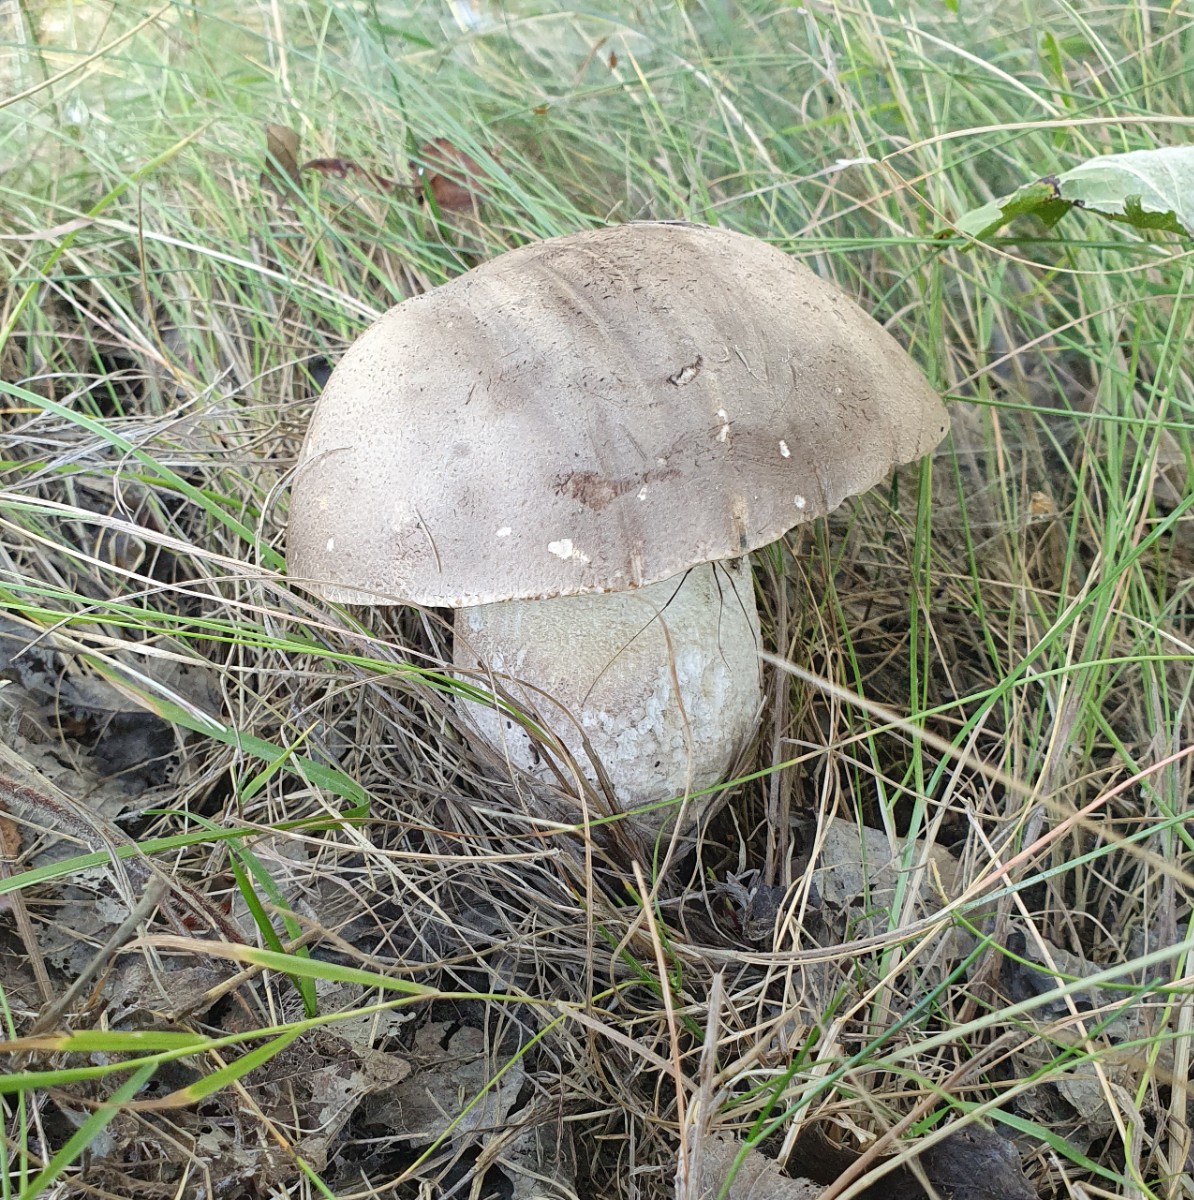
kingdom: Fungi
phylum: Basidiomycota
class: Agaricomycetes
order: Boletales
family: Boletaceae
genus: Leccinum
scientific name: Leccinum duriusculum
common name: poppel-skælrørhat
